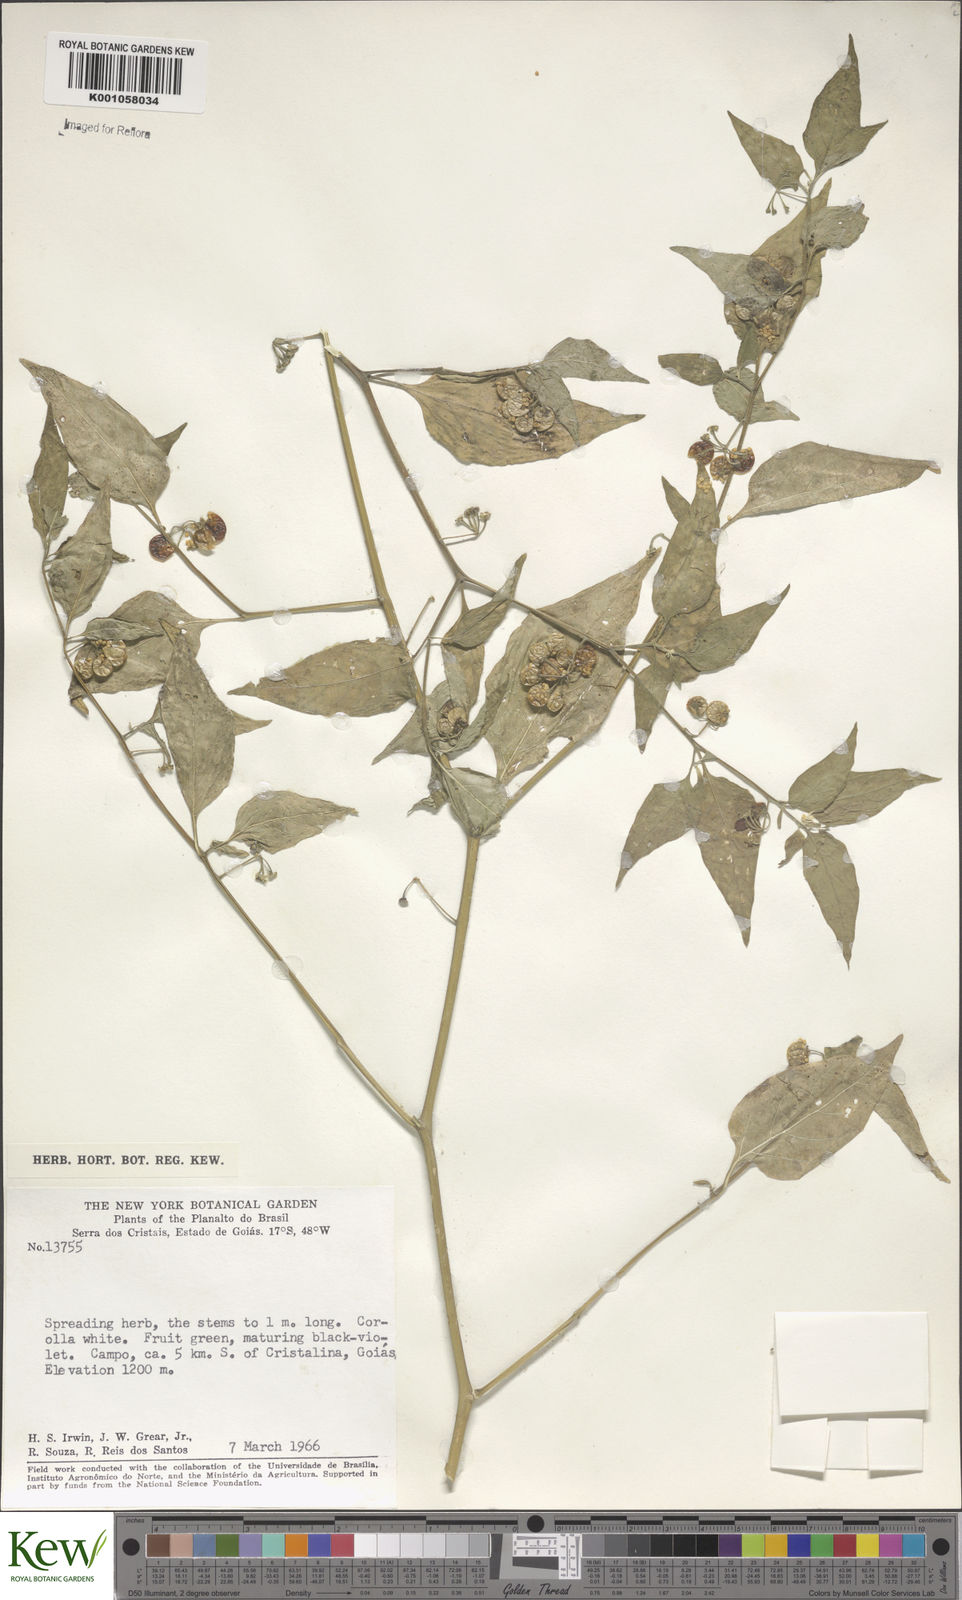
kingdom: Plantae
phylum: Tracheophyta
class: Magnoliopsida
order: Solanales
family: Solanaceae
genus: Solanum
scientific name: Solanum americanum
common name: American black nightshade
